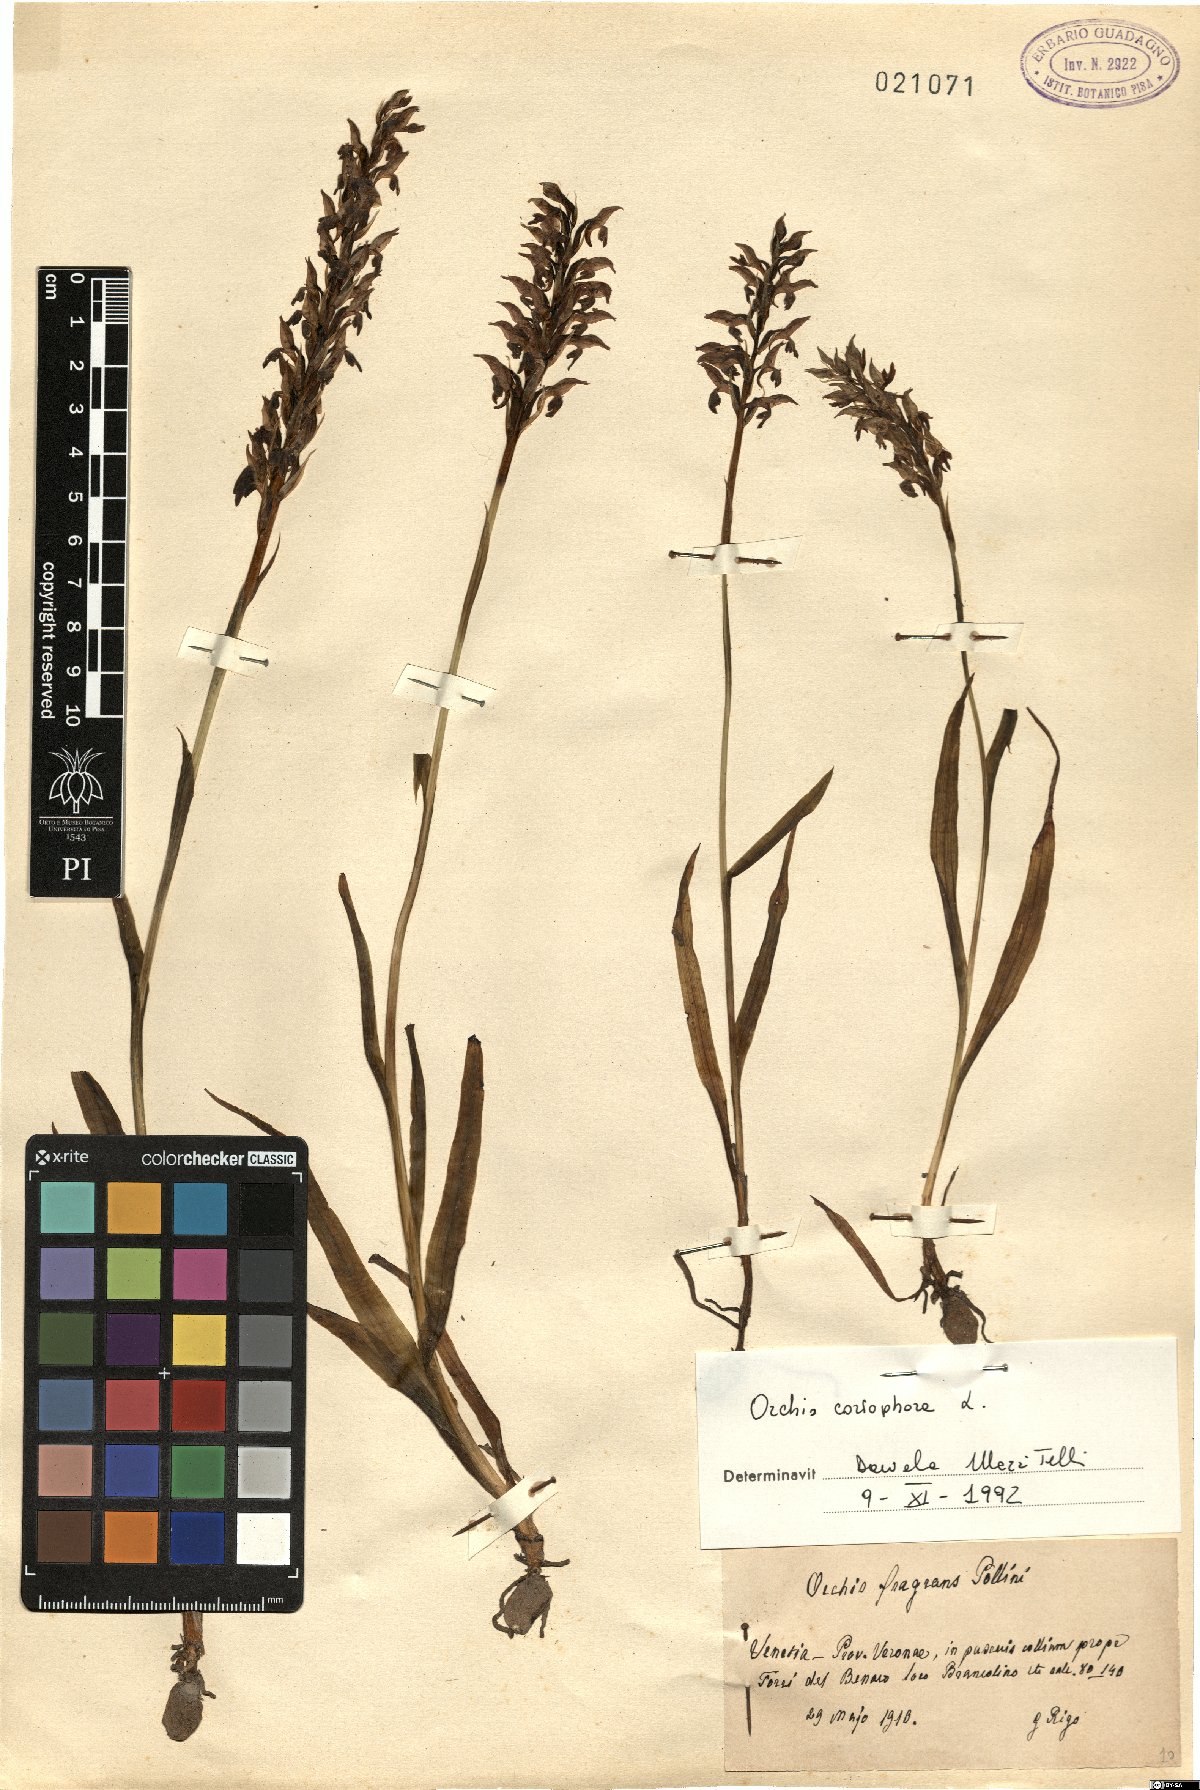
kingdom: Plantae
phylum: Tracheophyta
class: Liliopsida
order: Asparagales
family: Orchidaceae
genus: Anacamptis
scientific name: Anacamptis coriophora
